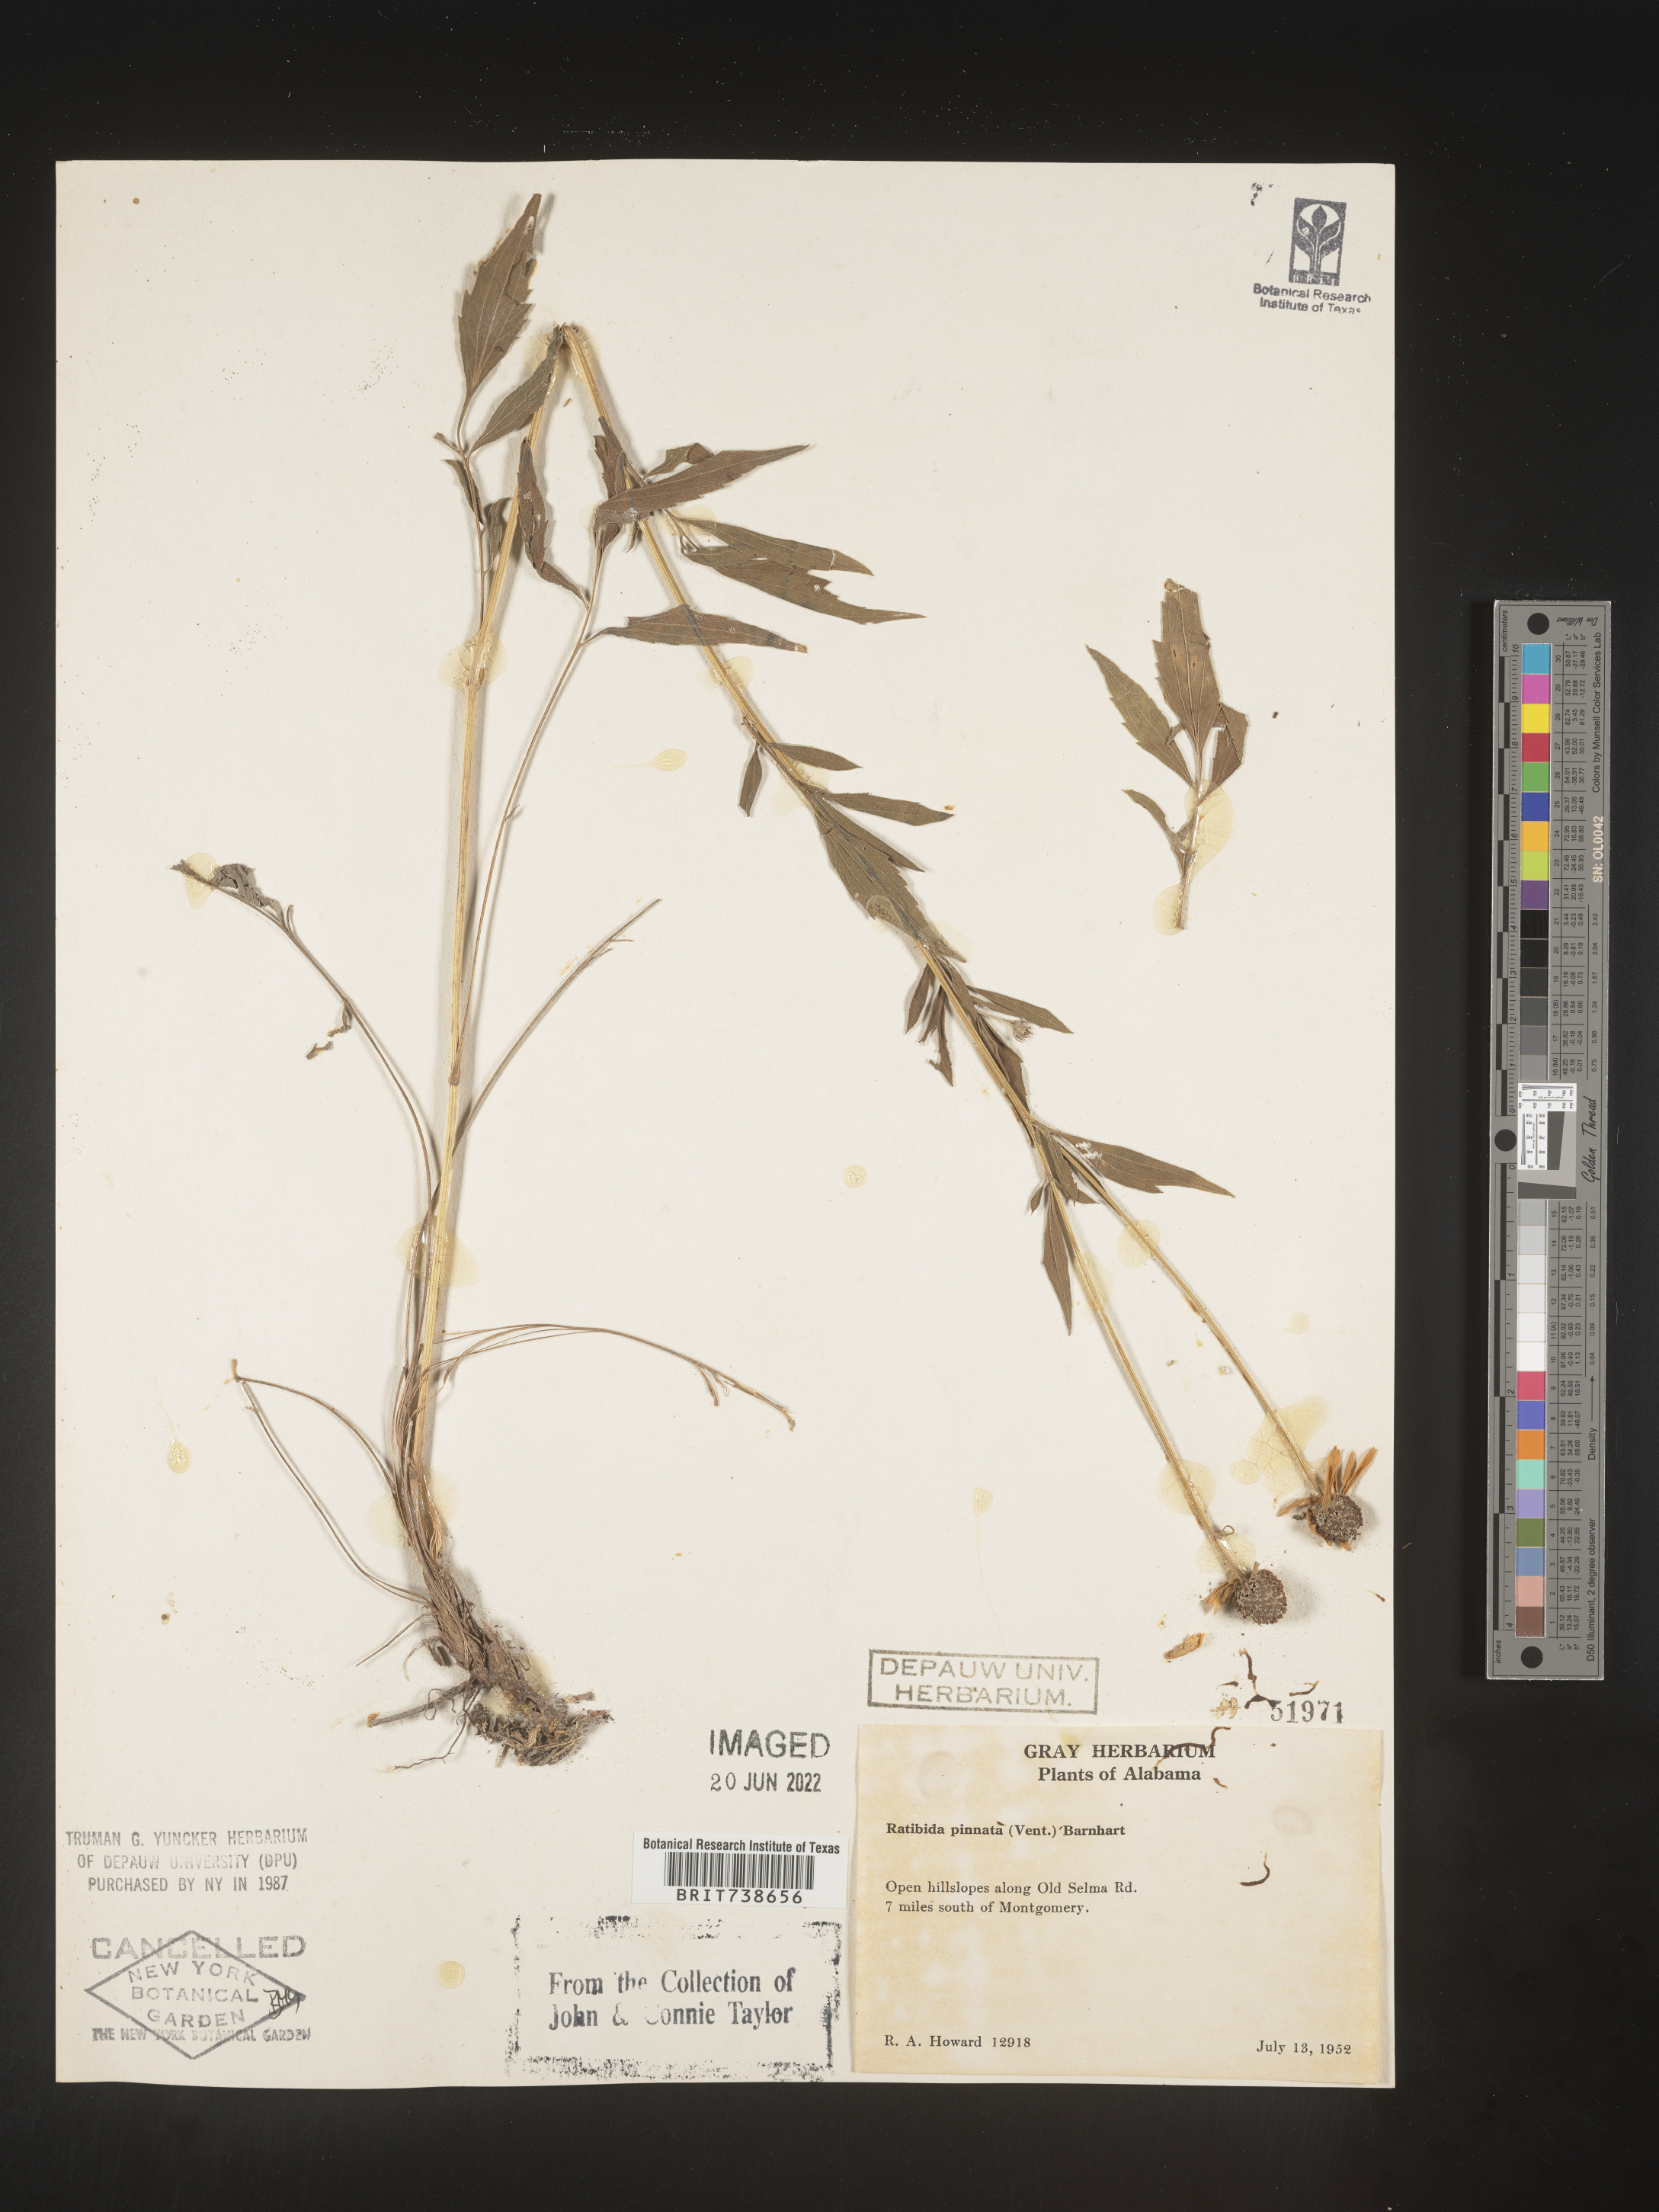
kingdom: Plantae
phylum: Tracheophyta
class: Magnoliopsida
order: Asterales
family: Asteraceae
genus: Ratibida
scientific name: Ratibida pinnata
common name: Drooping prairie-coneflower
